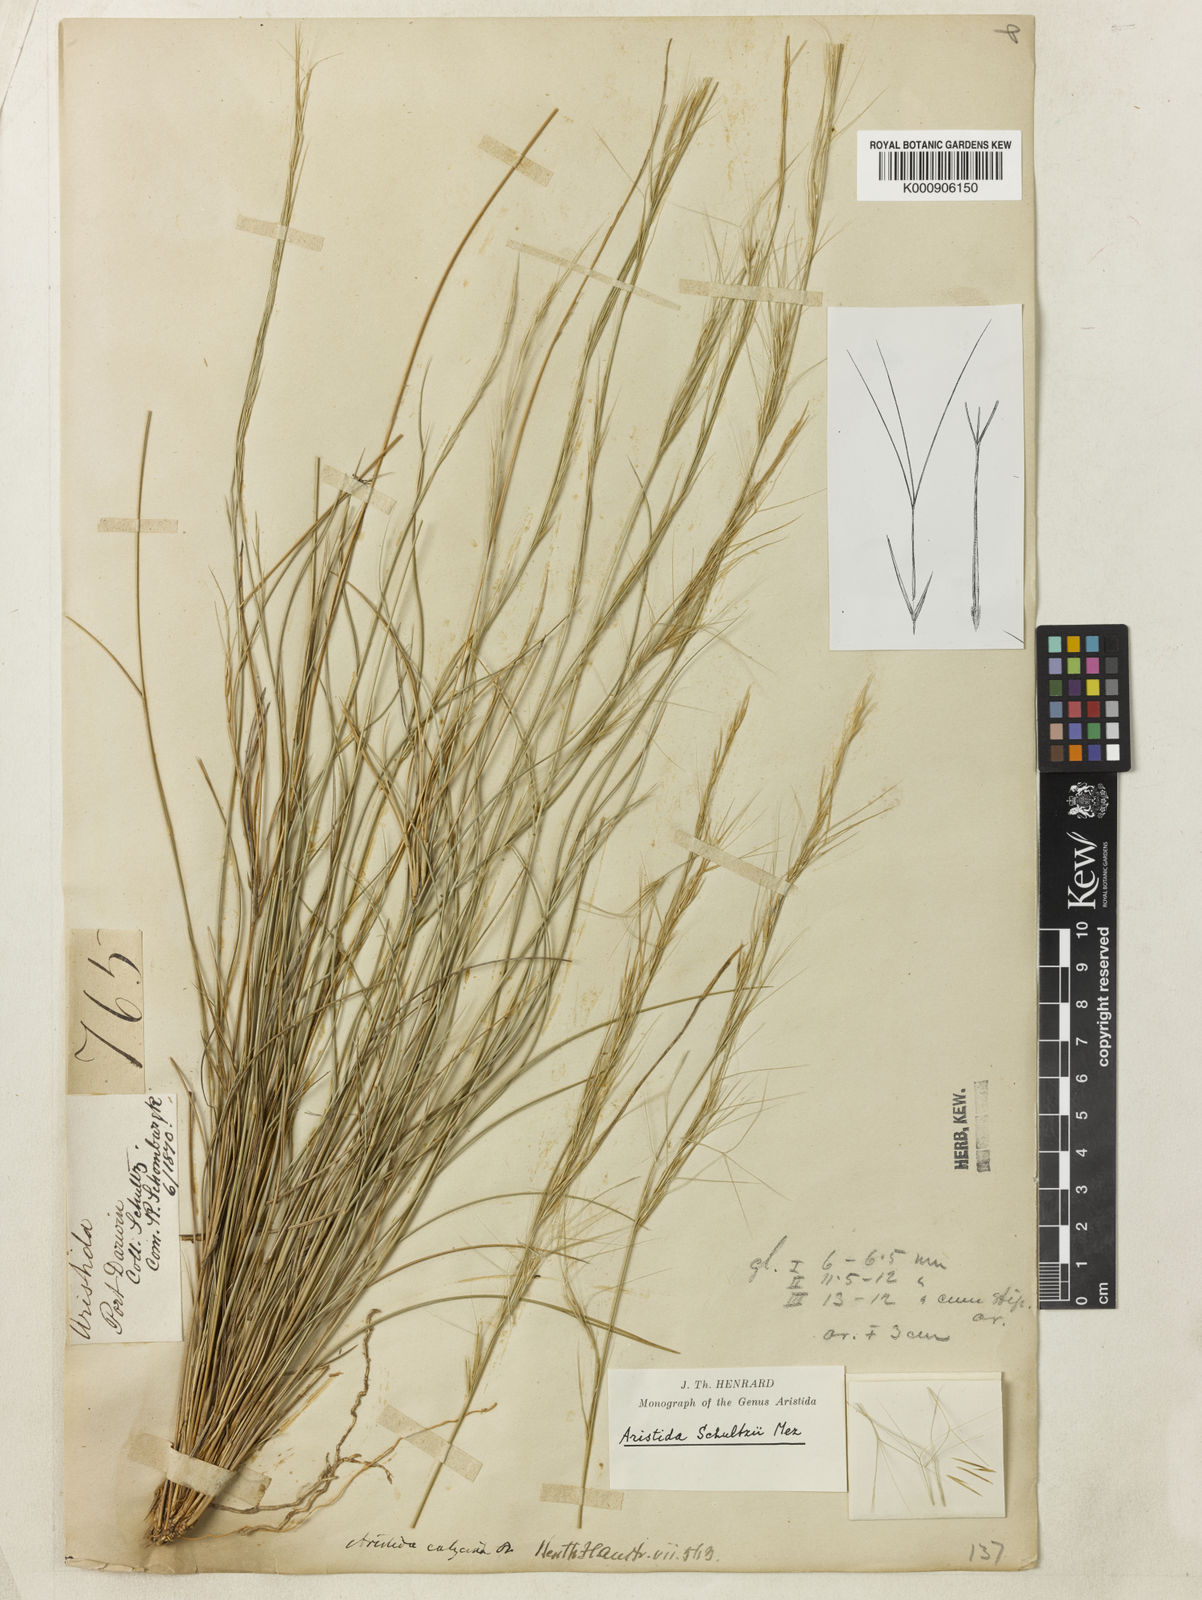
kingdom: Plantae
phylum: Tracheophyta
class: Liliopsida
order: Poales
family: Poaceae
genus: Aristida
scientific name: Aristida schultzii
